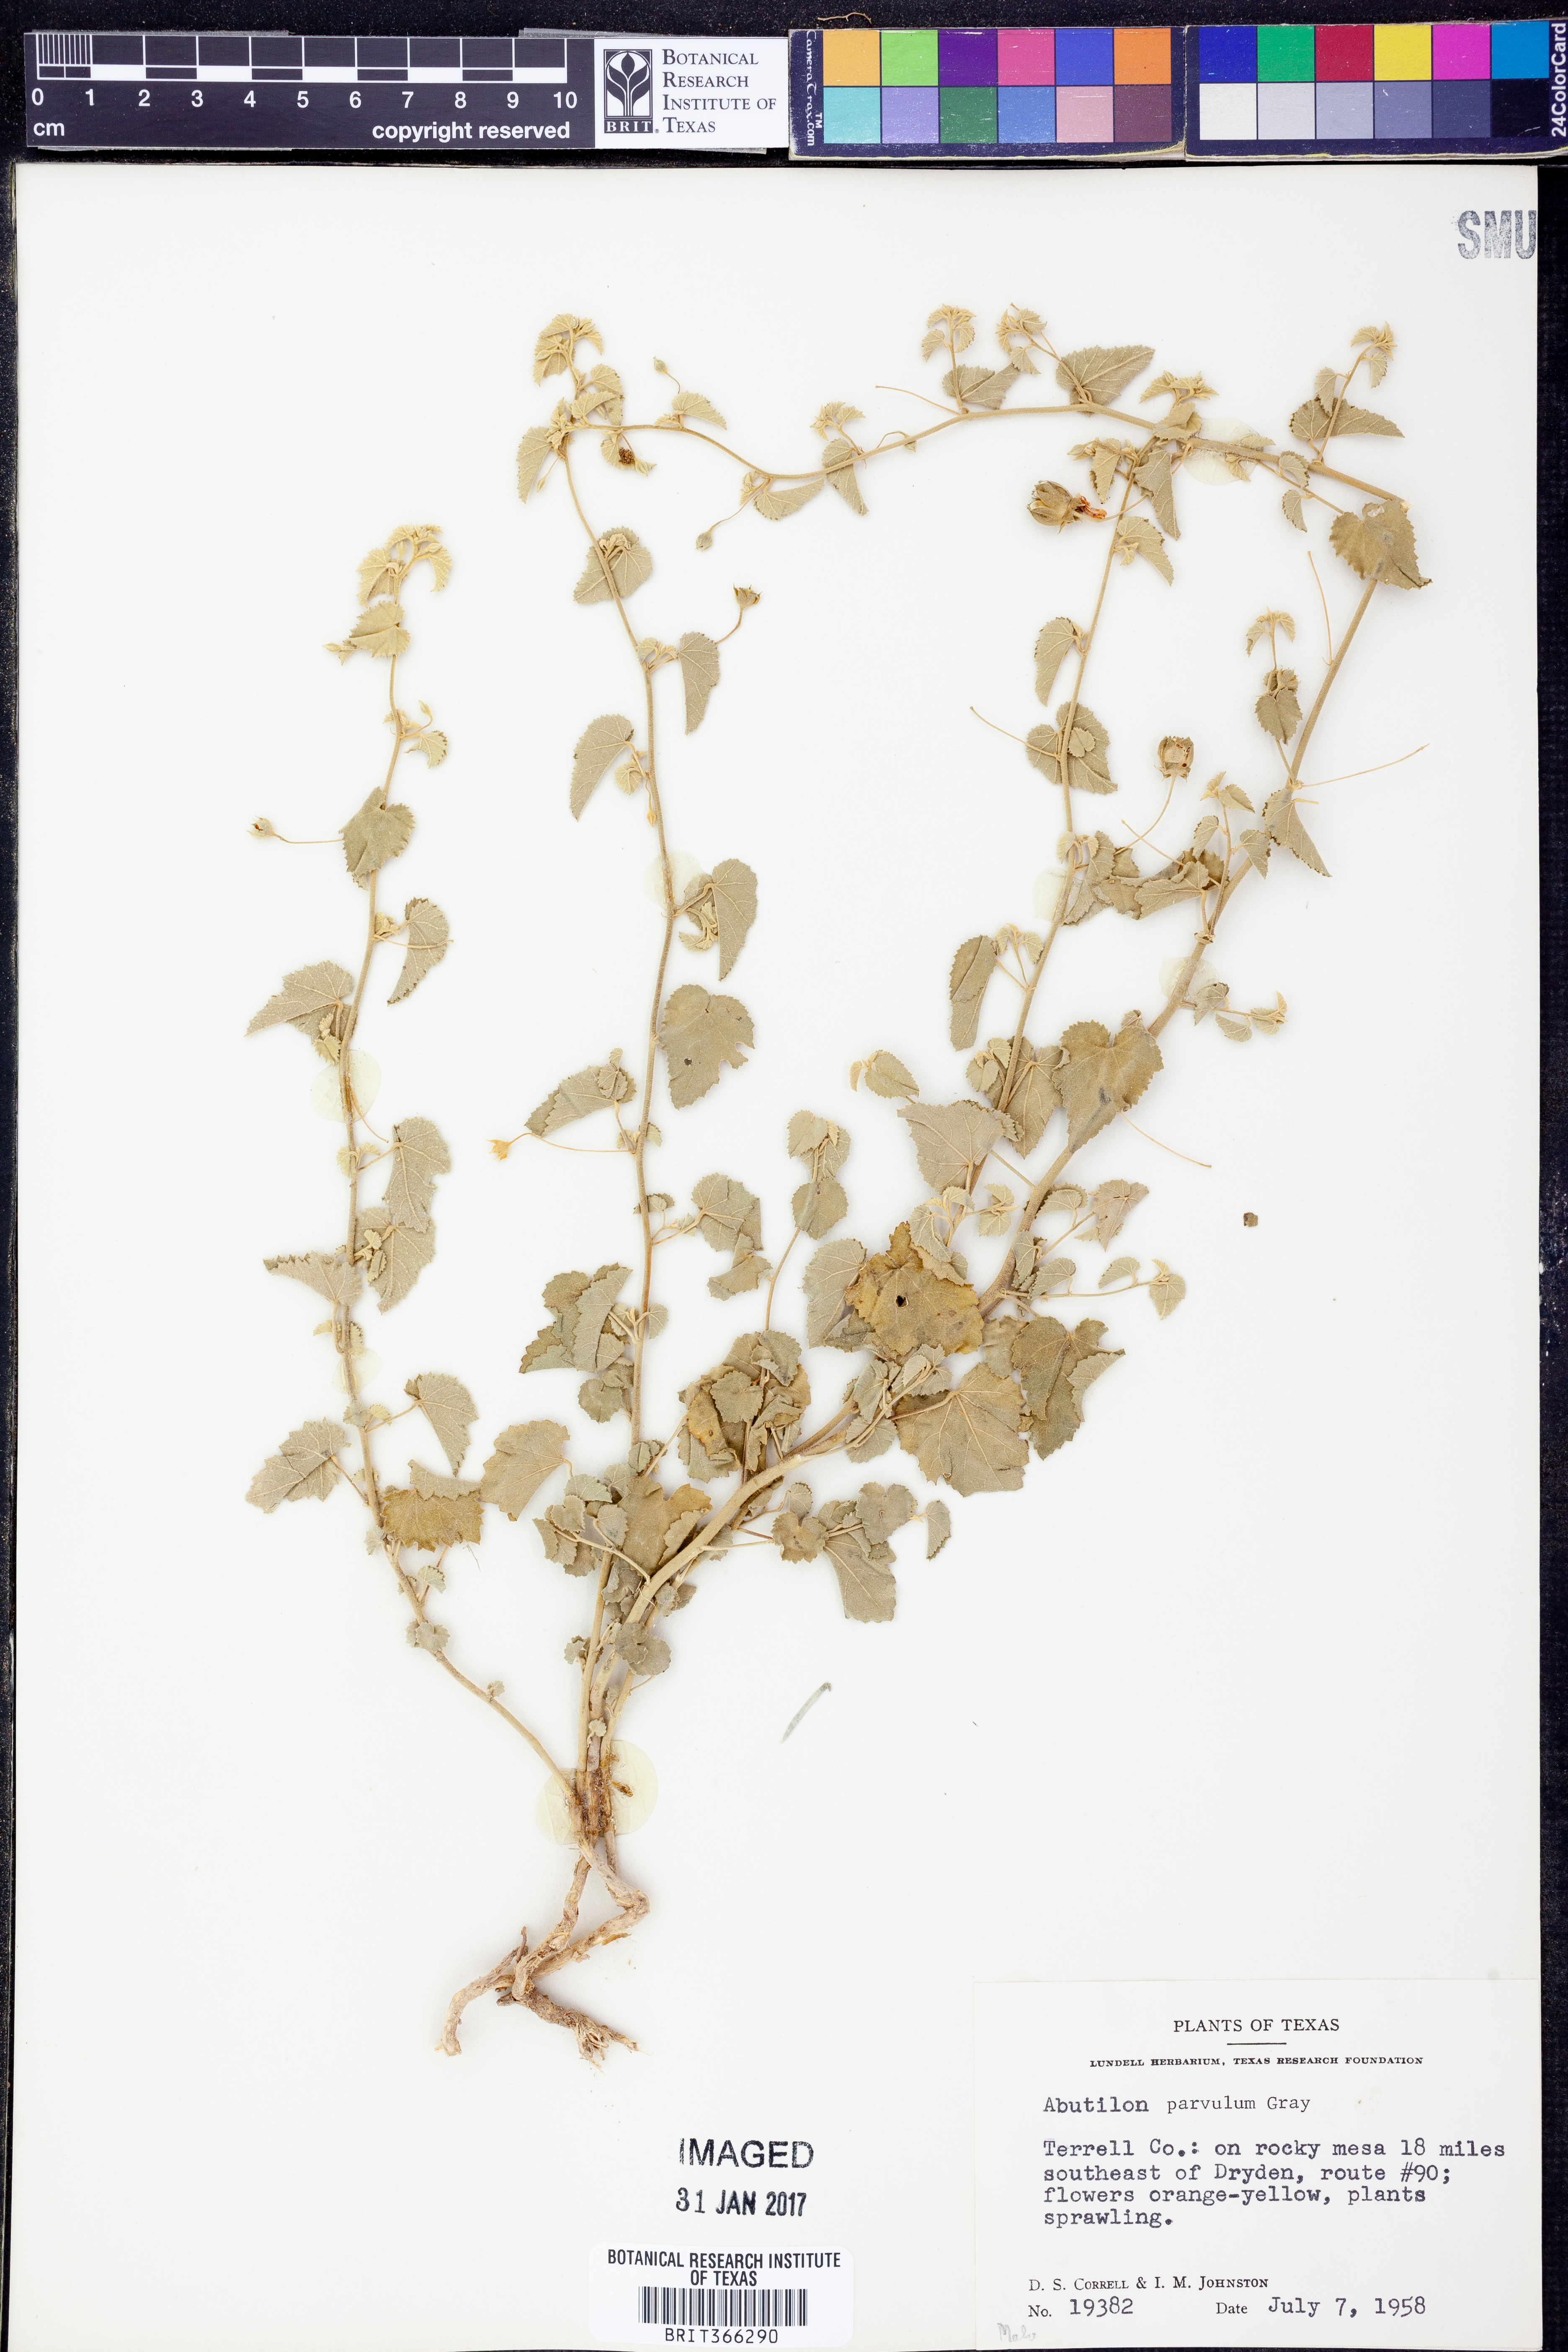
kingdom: Plantae
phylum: Tracheophyta
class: Magnoliopsida
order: Malvales
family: Malvaceae
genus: Abutilon
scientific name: Abutilon parvulum
